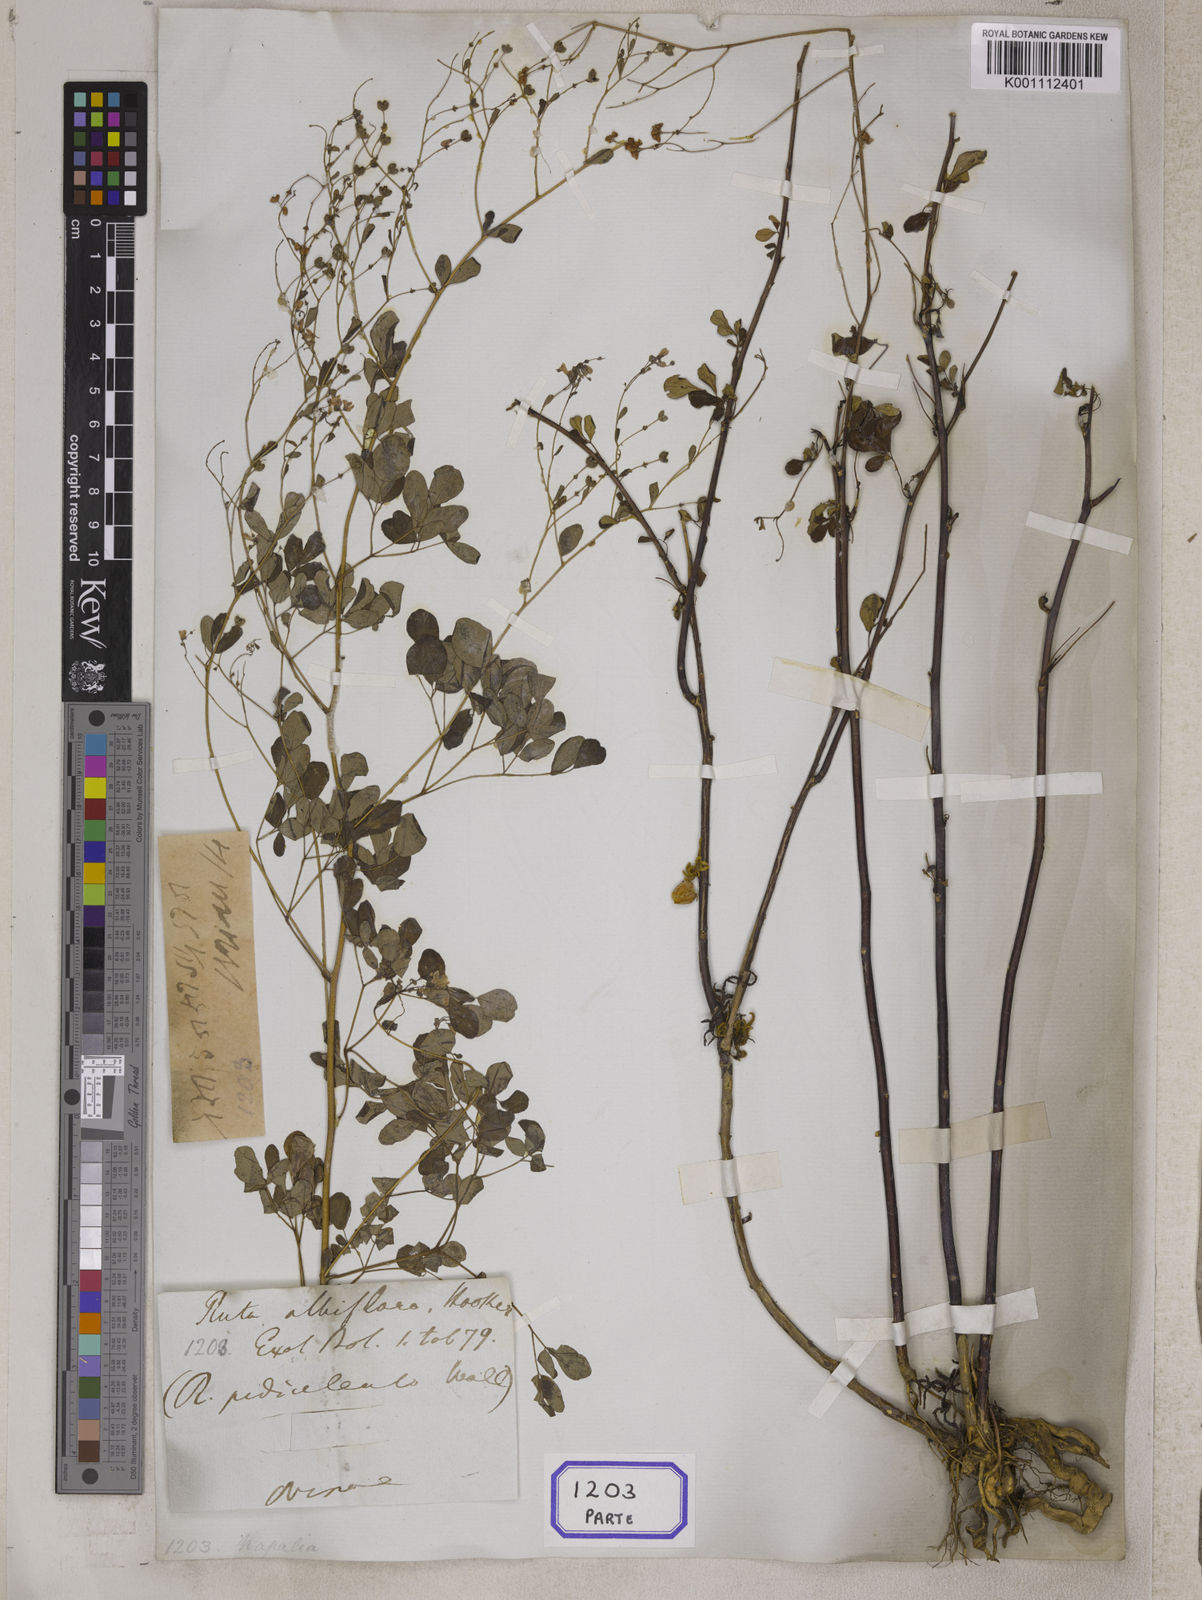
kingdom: Plantae
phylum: Tracheophyta
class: Magnoliopsida
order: Sapindales
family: Rutaceae
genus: Boenninghausenia
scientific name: Boenninghausenia albiflora
